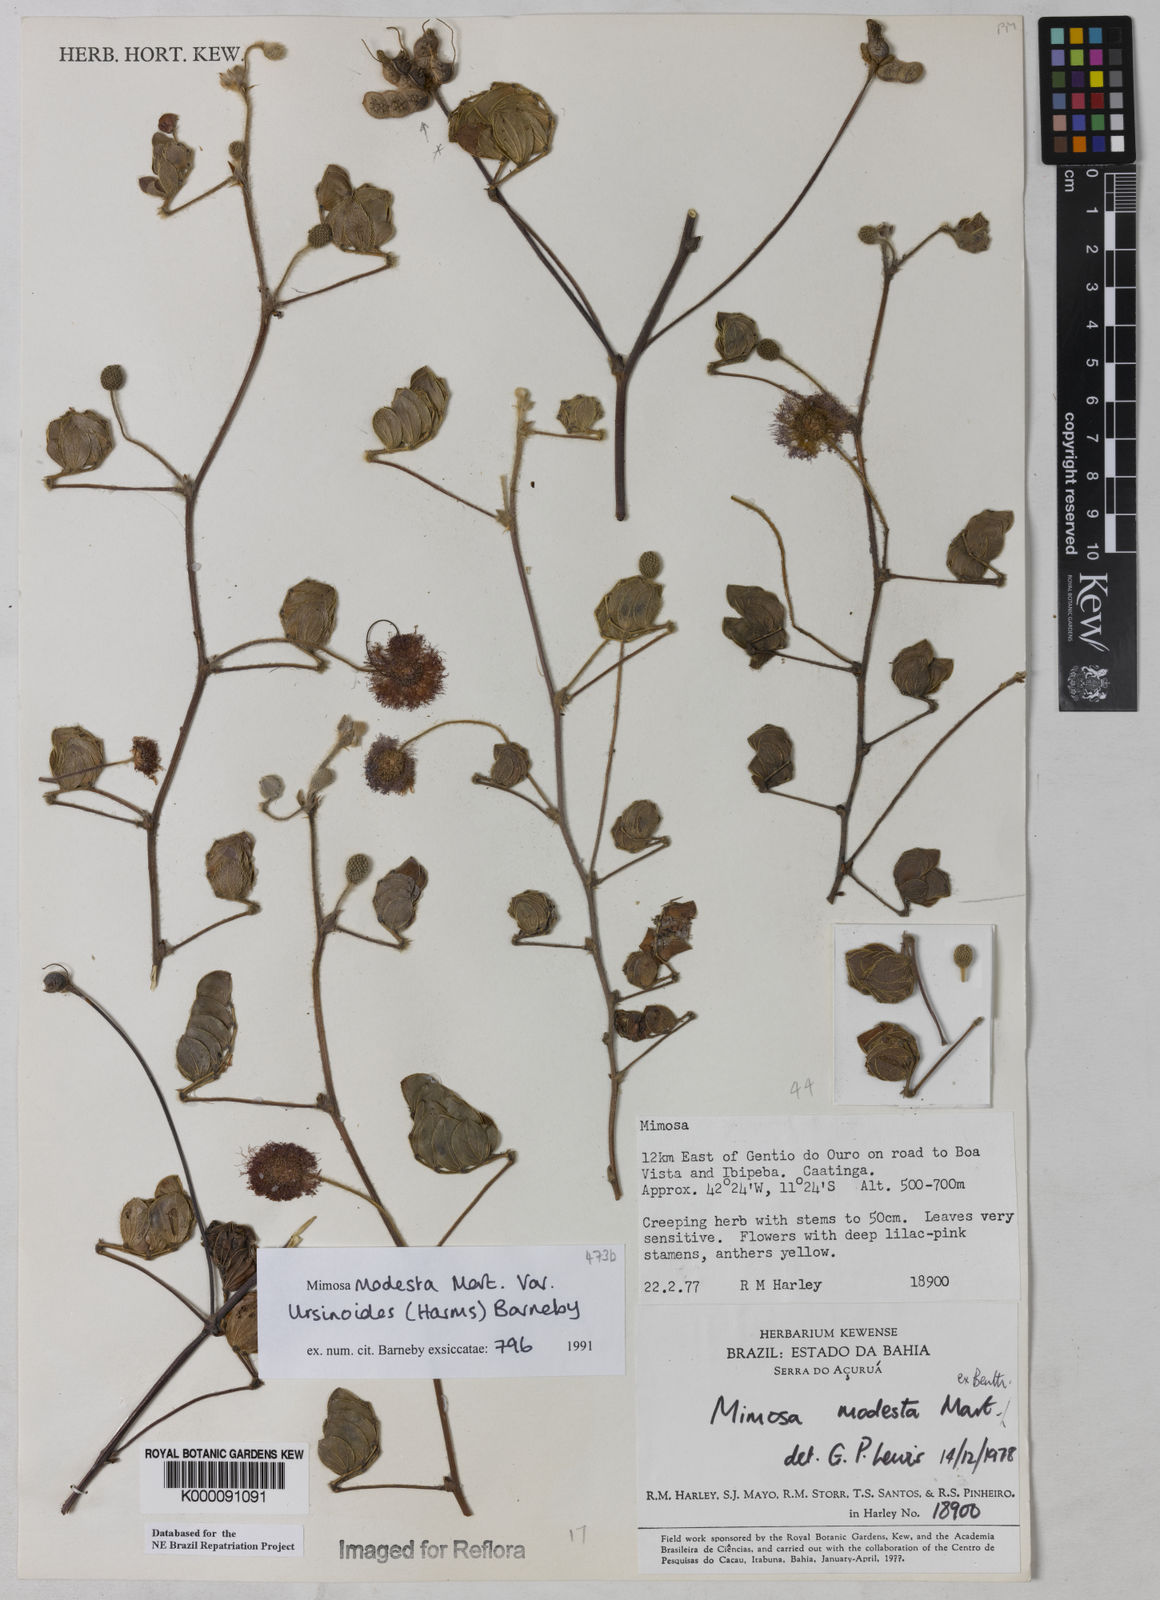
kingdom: Plantae
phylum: Tracheophyta
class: Magnoliopsida
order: Fabales
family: Fabaceae
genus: Mimosa
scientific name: Mimosa modesta
